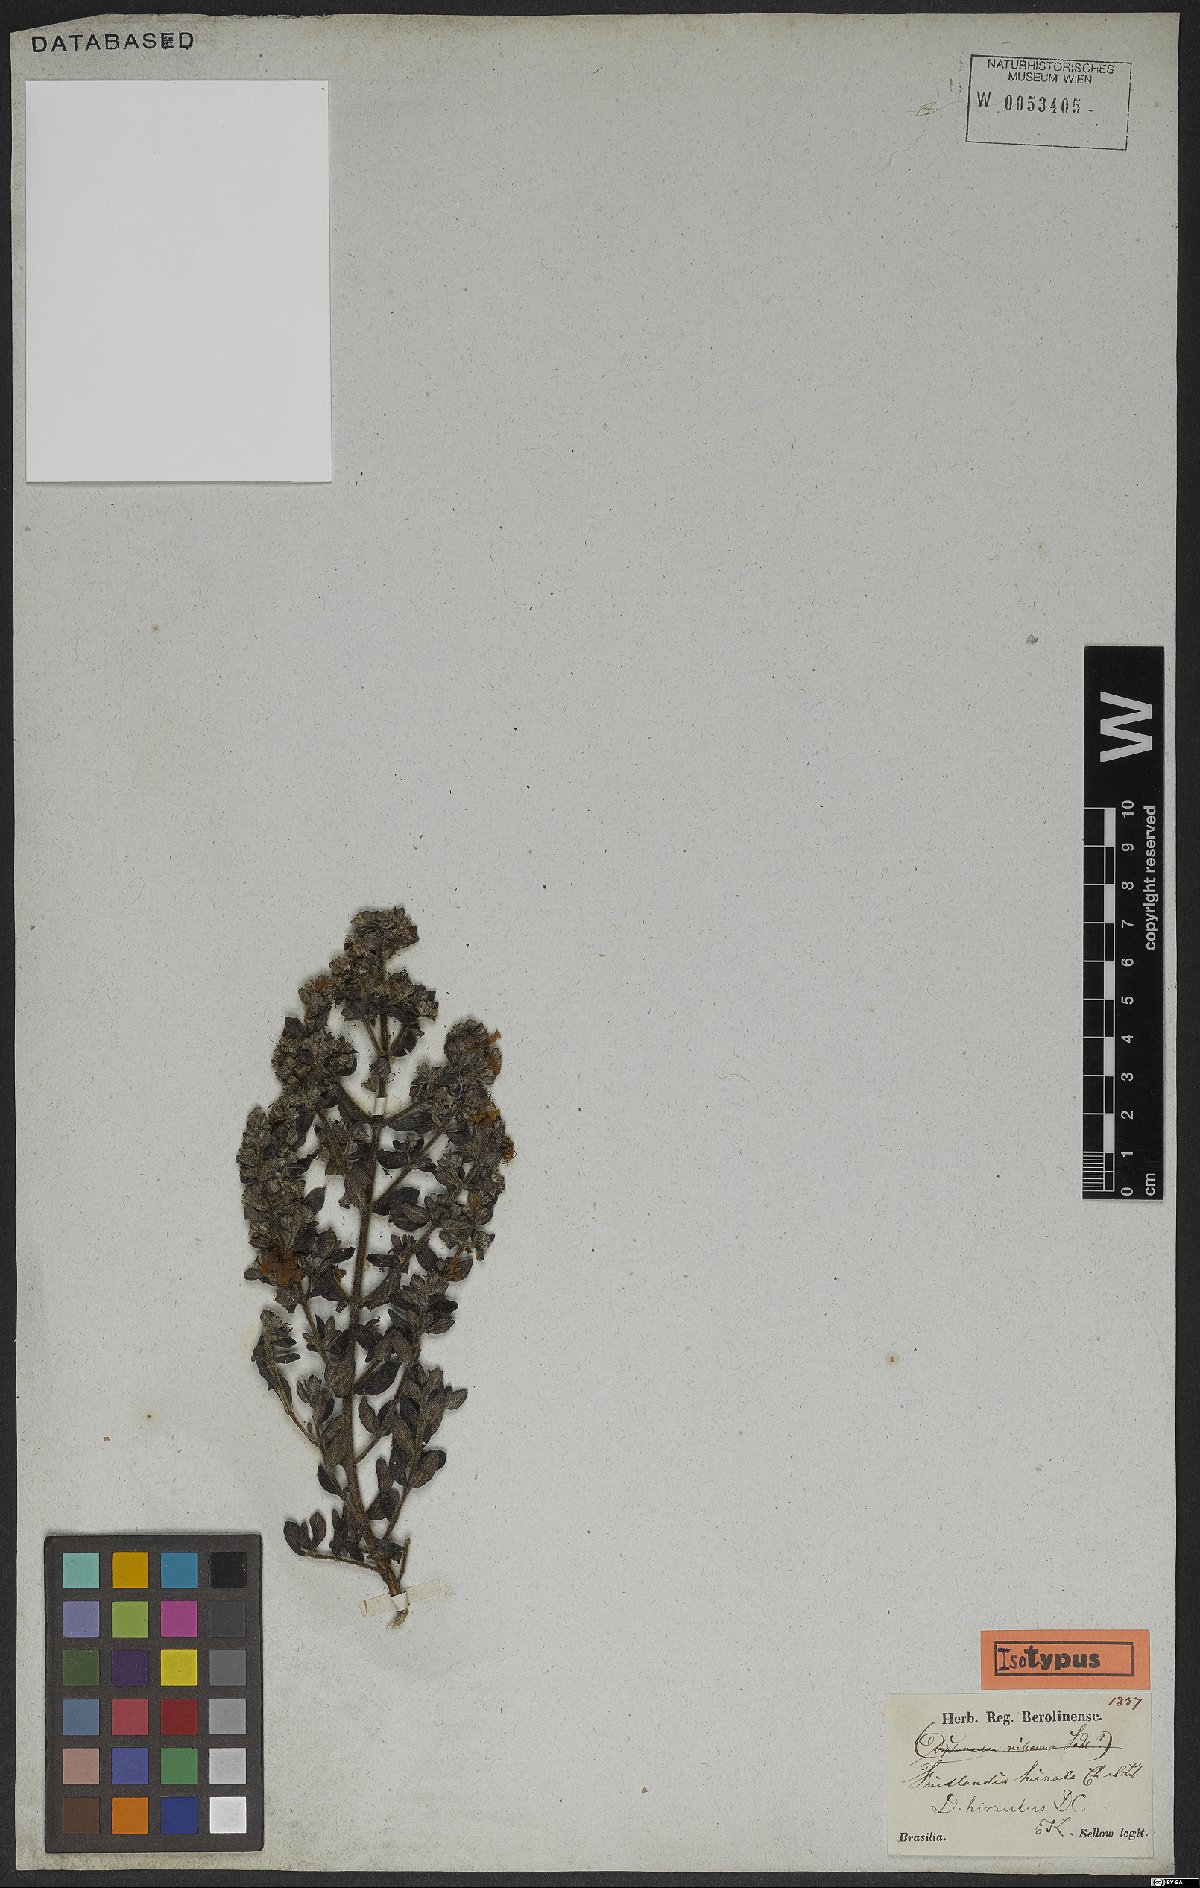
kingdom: Plantae
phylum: Tracheophyta
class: Magnoliopsida
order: Myrtales
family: Lythraceae
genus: Diplusodon
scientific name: Diplusodon hirsutus
